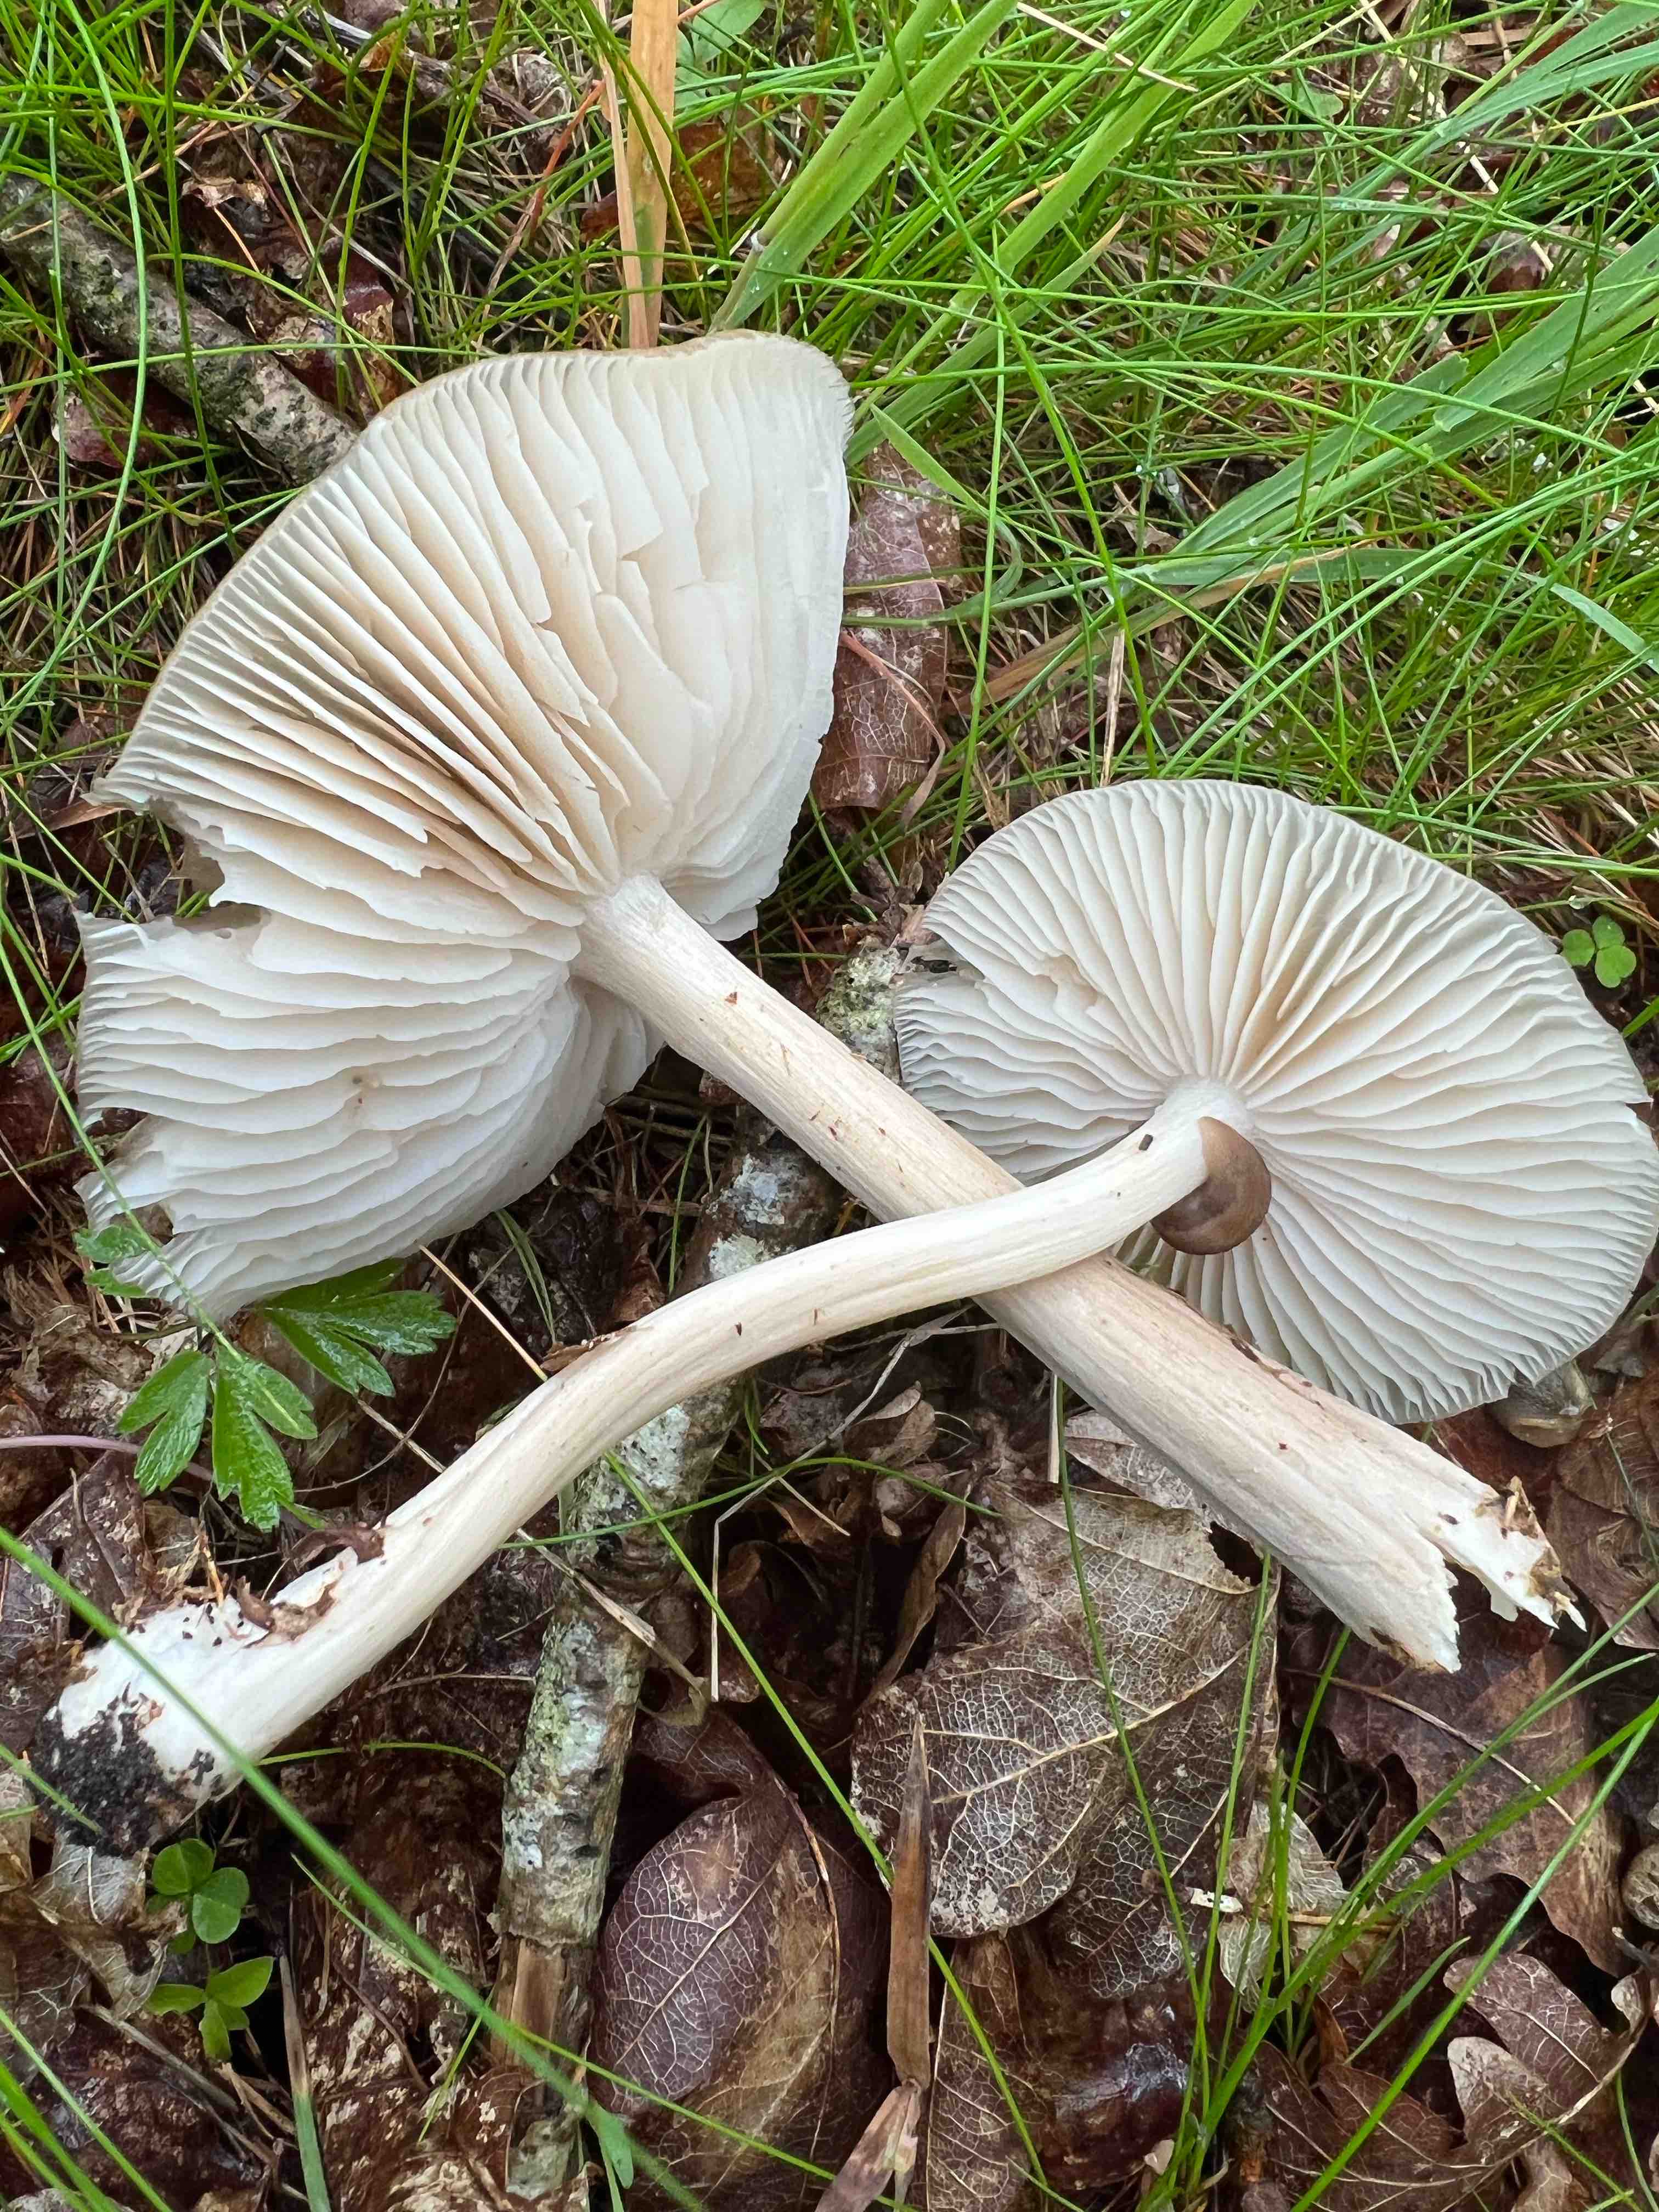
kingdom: Fungi
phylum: Basidiomycota
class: Agaricomycetes
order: Agaricales
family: Tricholomataceae
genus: Megacollybia
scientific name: Megacollybia platyphylla
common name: bredbladet væbnerhat
